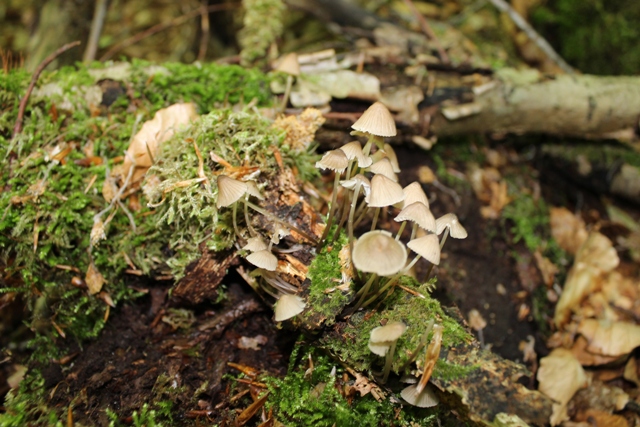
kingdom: Fungi
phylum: Basidiomycota
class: Agaricomycetes
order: Agaricales
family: Mycenaceae
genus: Mycena
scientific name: Mycena abramsii
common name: sommer-huesvamp
